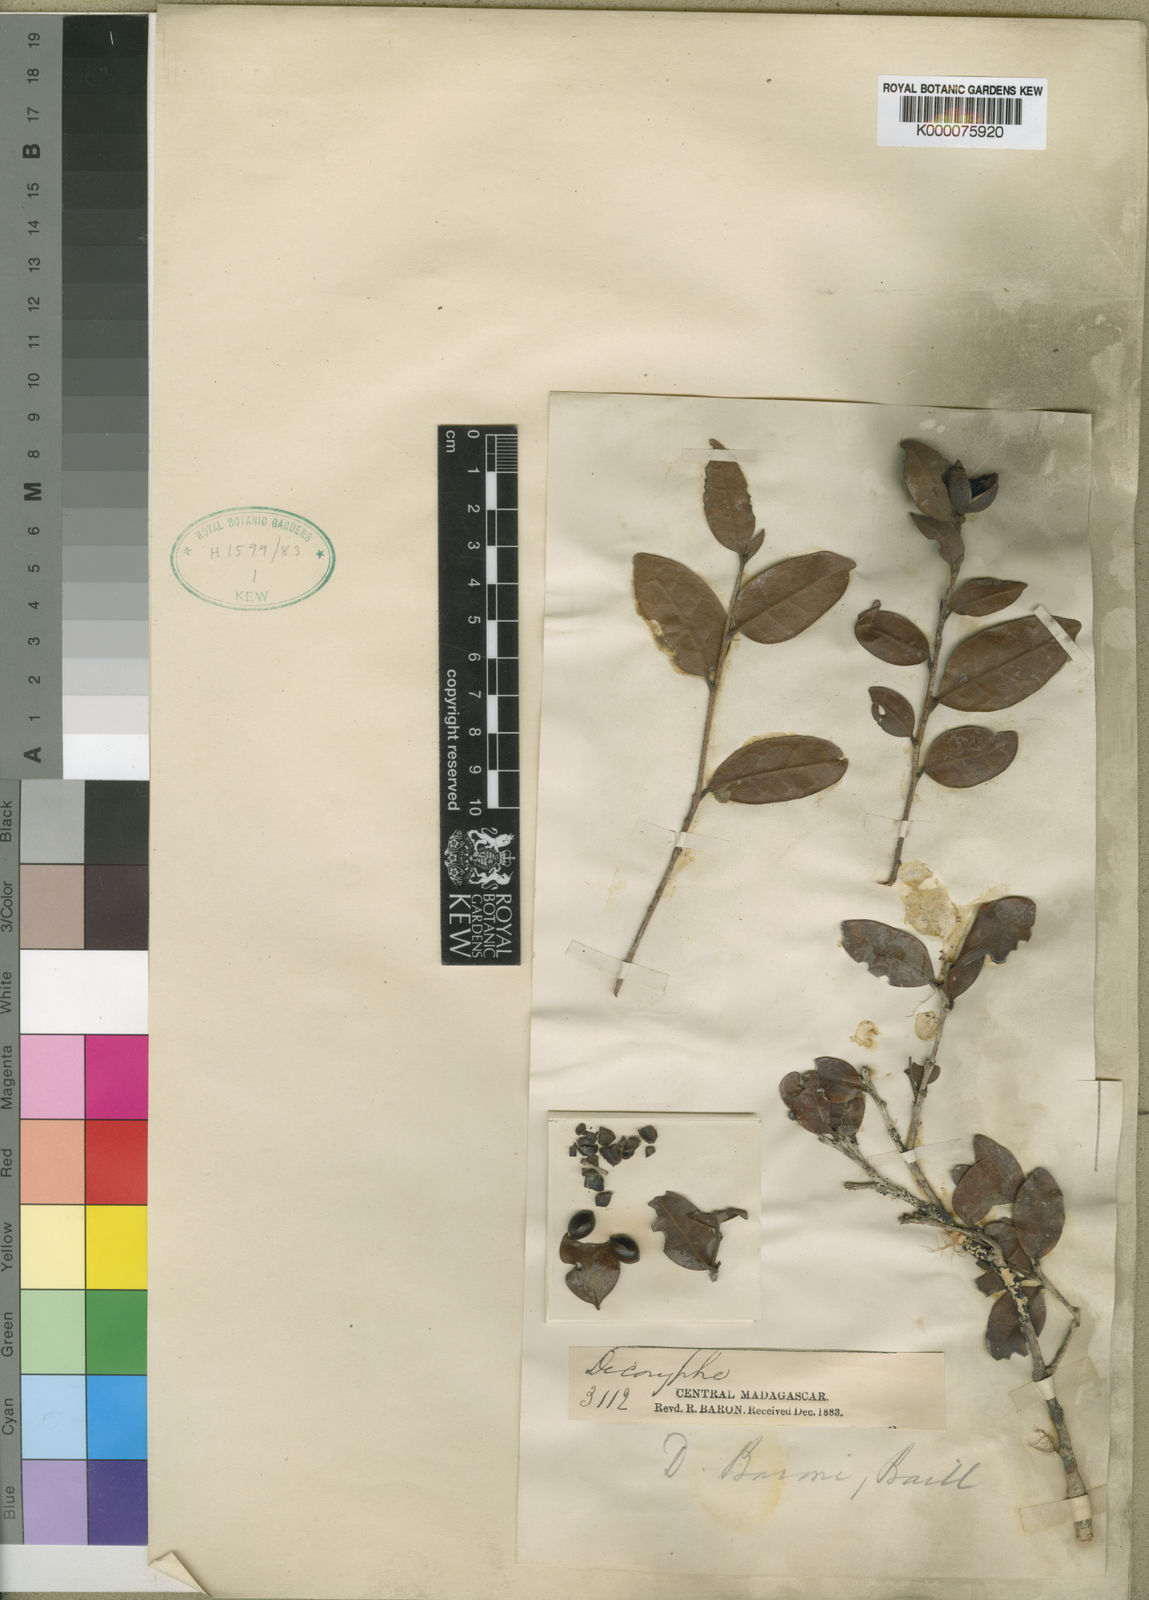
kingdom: Plantae
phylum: Tracheophyta
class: Magnoliopsida
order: Saxifragales
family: Hamamelidaceae
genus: Dicoryphe
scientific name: Dicoryphe
